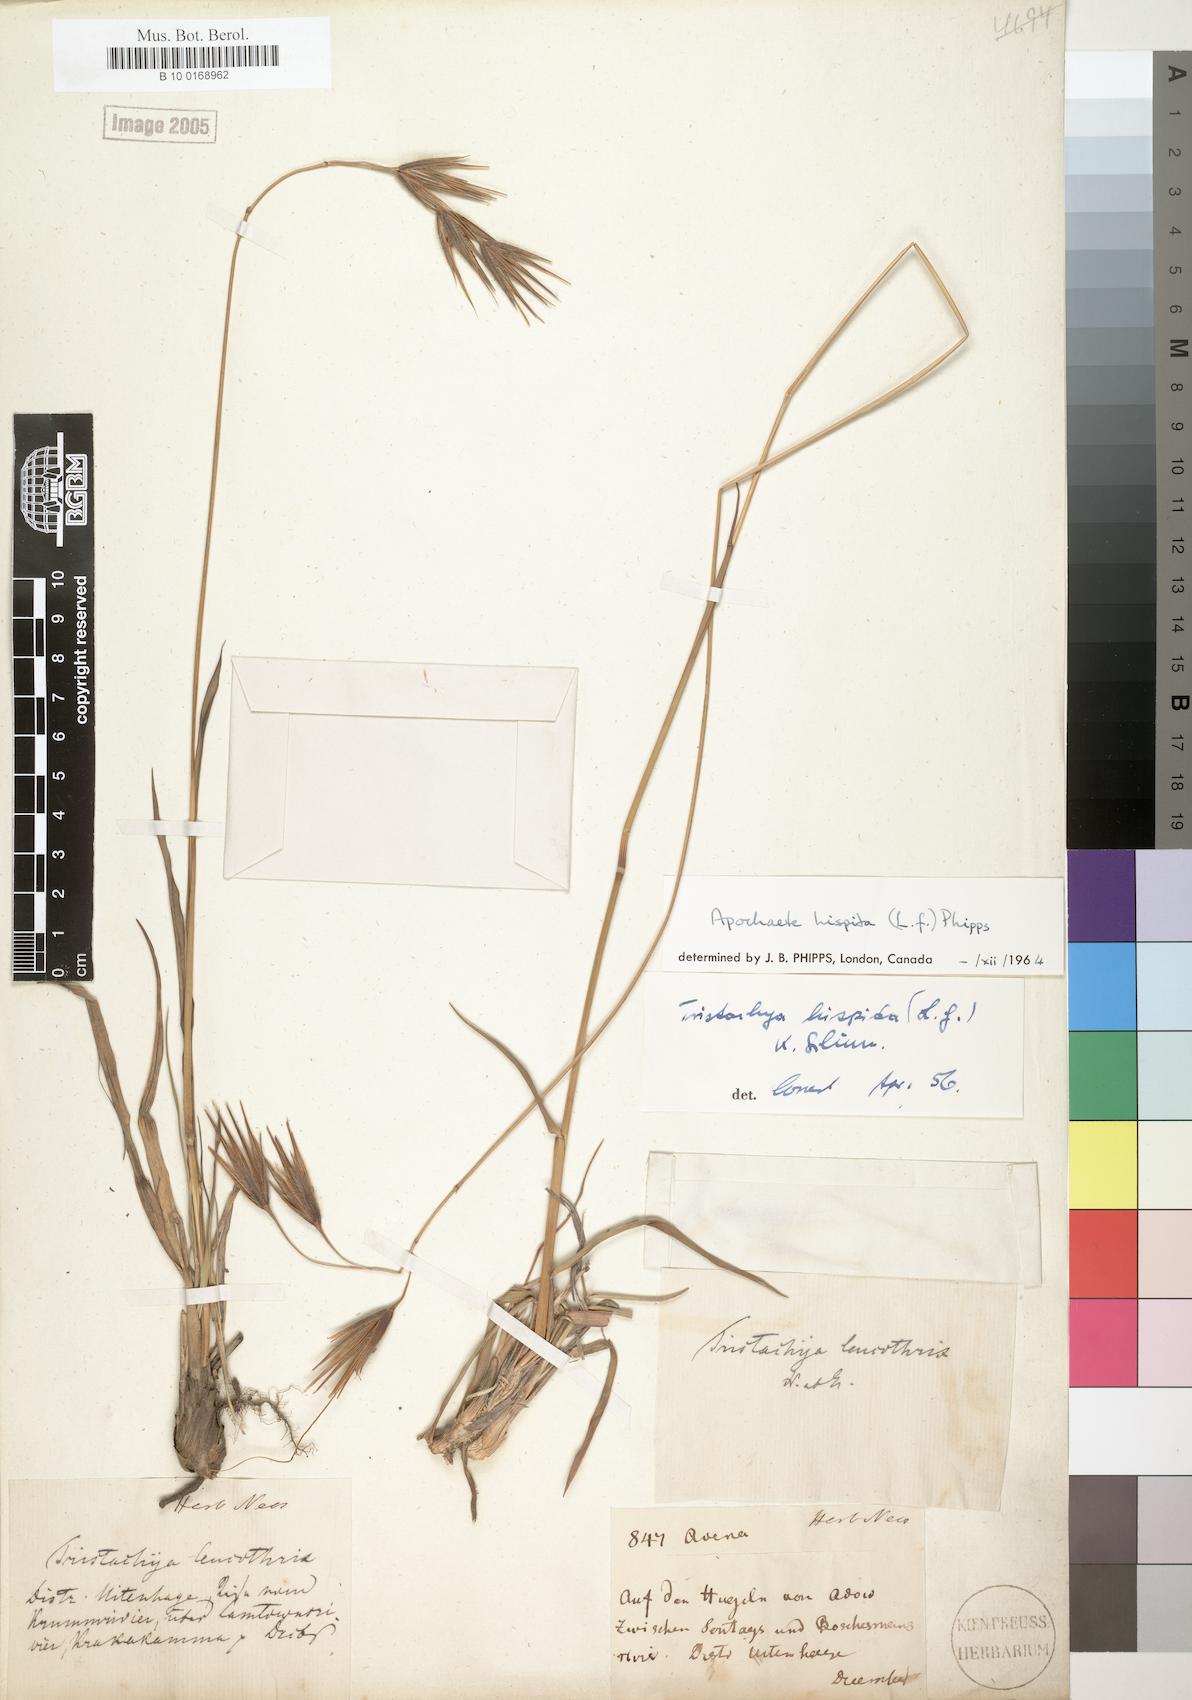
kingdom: Plantae
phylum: Tracheophyta
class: Liliopsida
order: Poales
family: Poaceae
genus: Tristachya
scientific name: Tristachya leucothrix
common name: Trident grass
